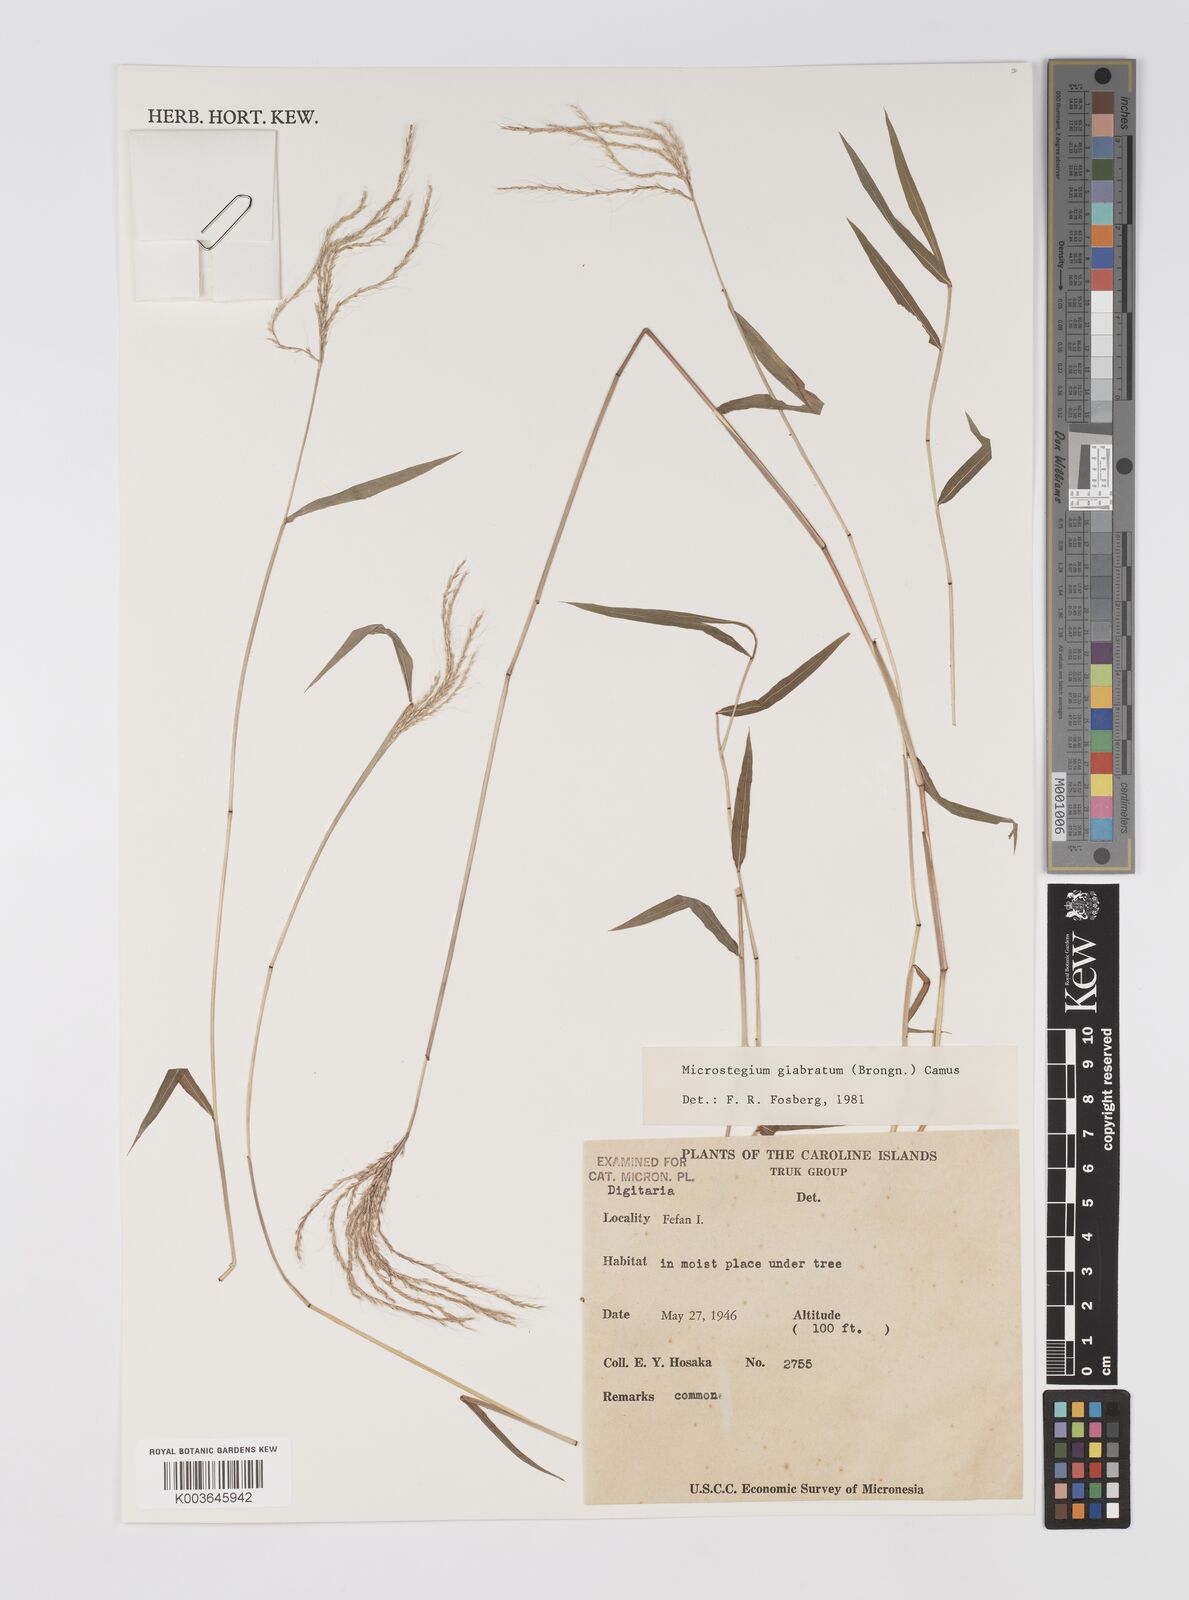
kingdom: Plantae
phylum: Tracheophyta
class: Liliopsida
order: Poales
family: Poaceae
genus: Microstegium
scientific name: Microstegium glabratum
